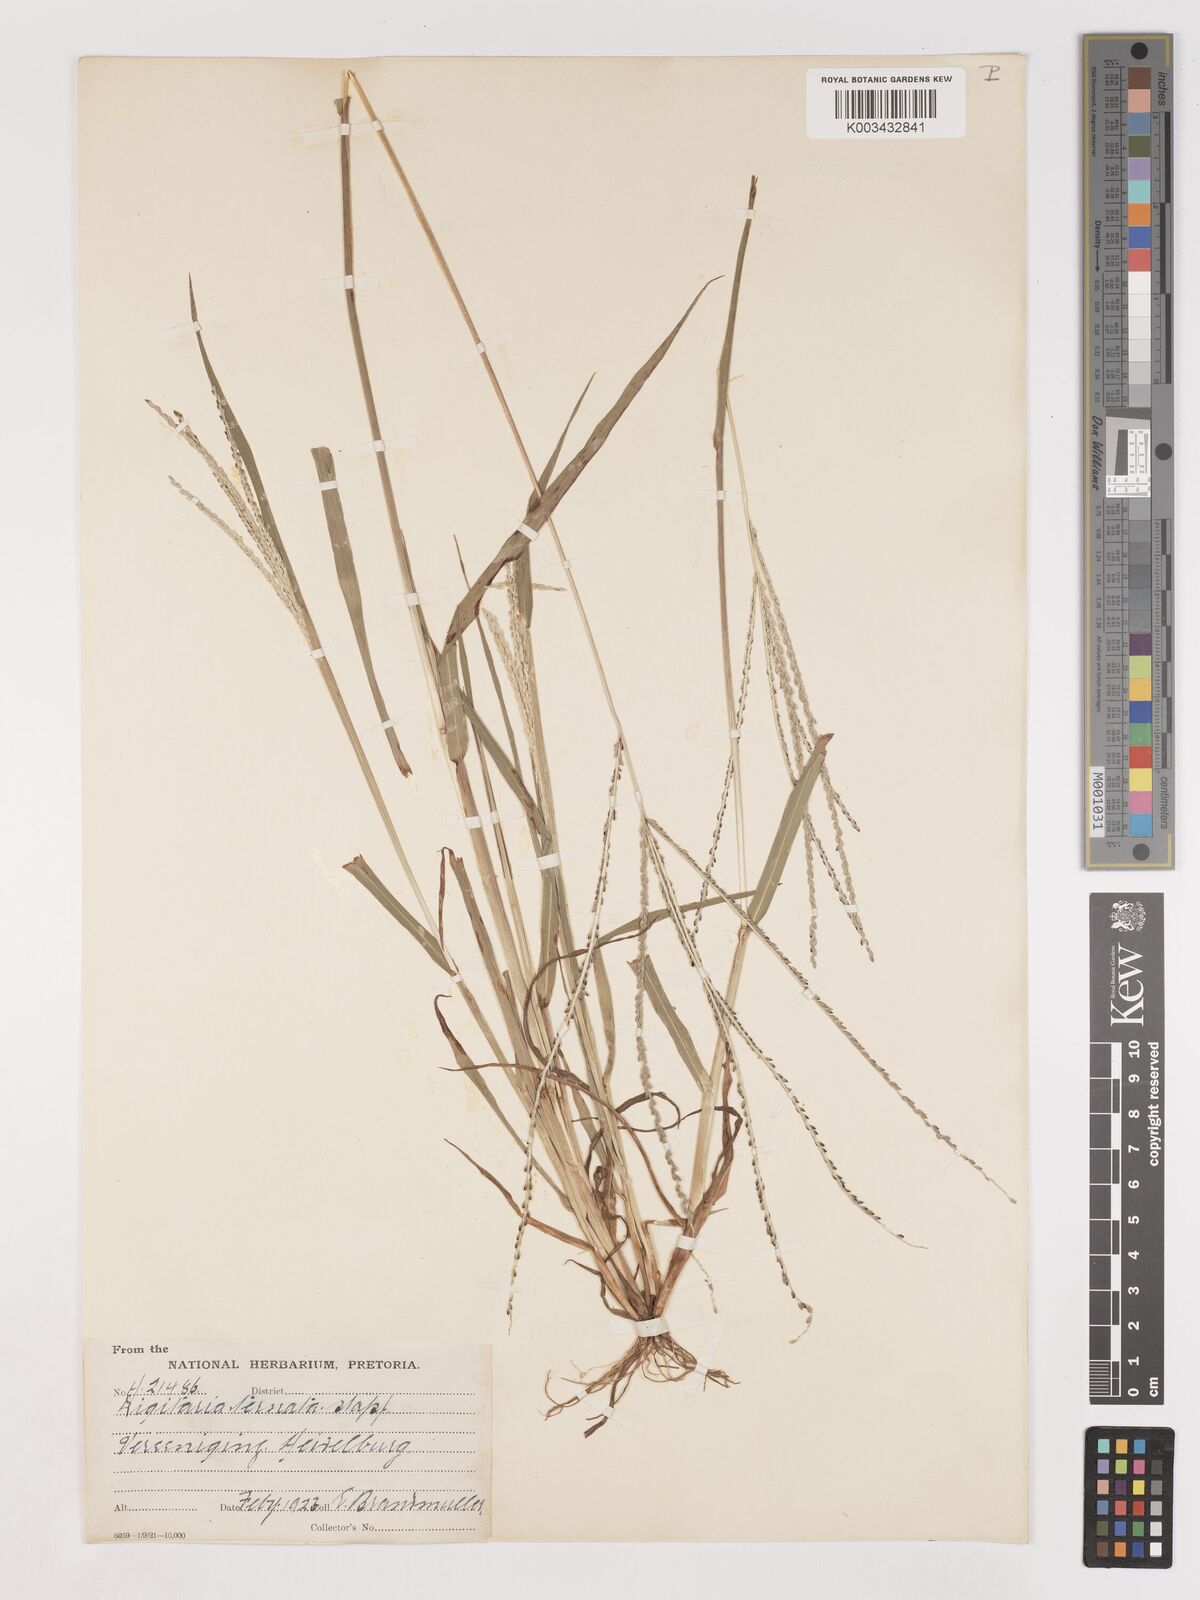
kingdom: Plantae
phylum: Tracheophyta
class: Liliopsida
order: Poales
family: Poaceae
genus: Digitaria
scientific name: Digitaria ternata
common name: Blackseed crabgrass
